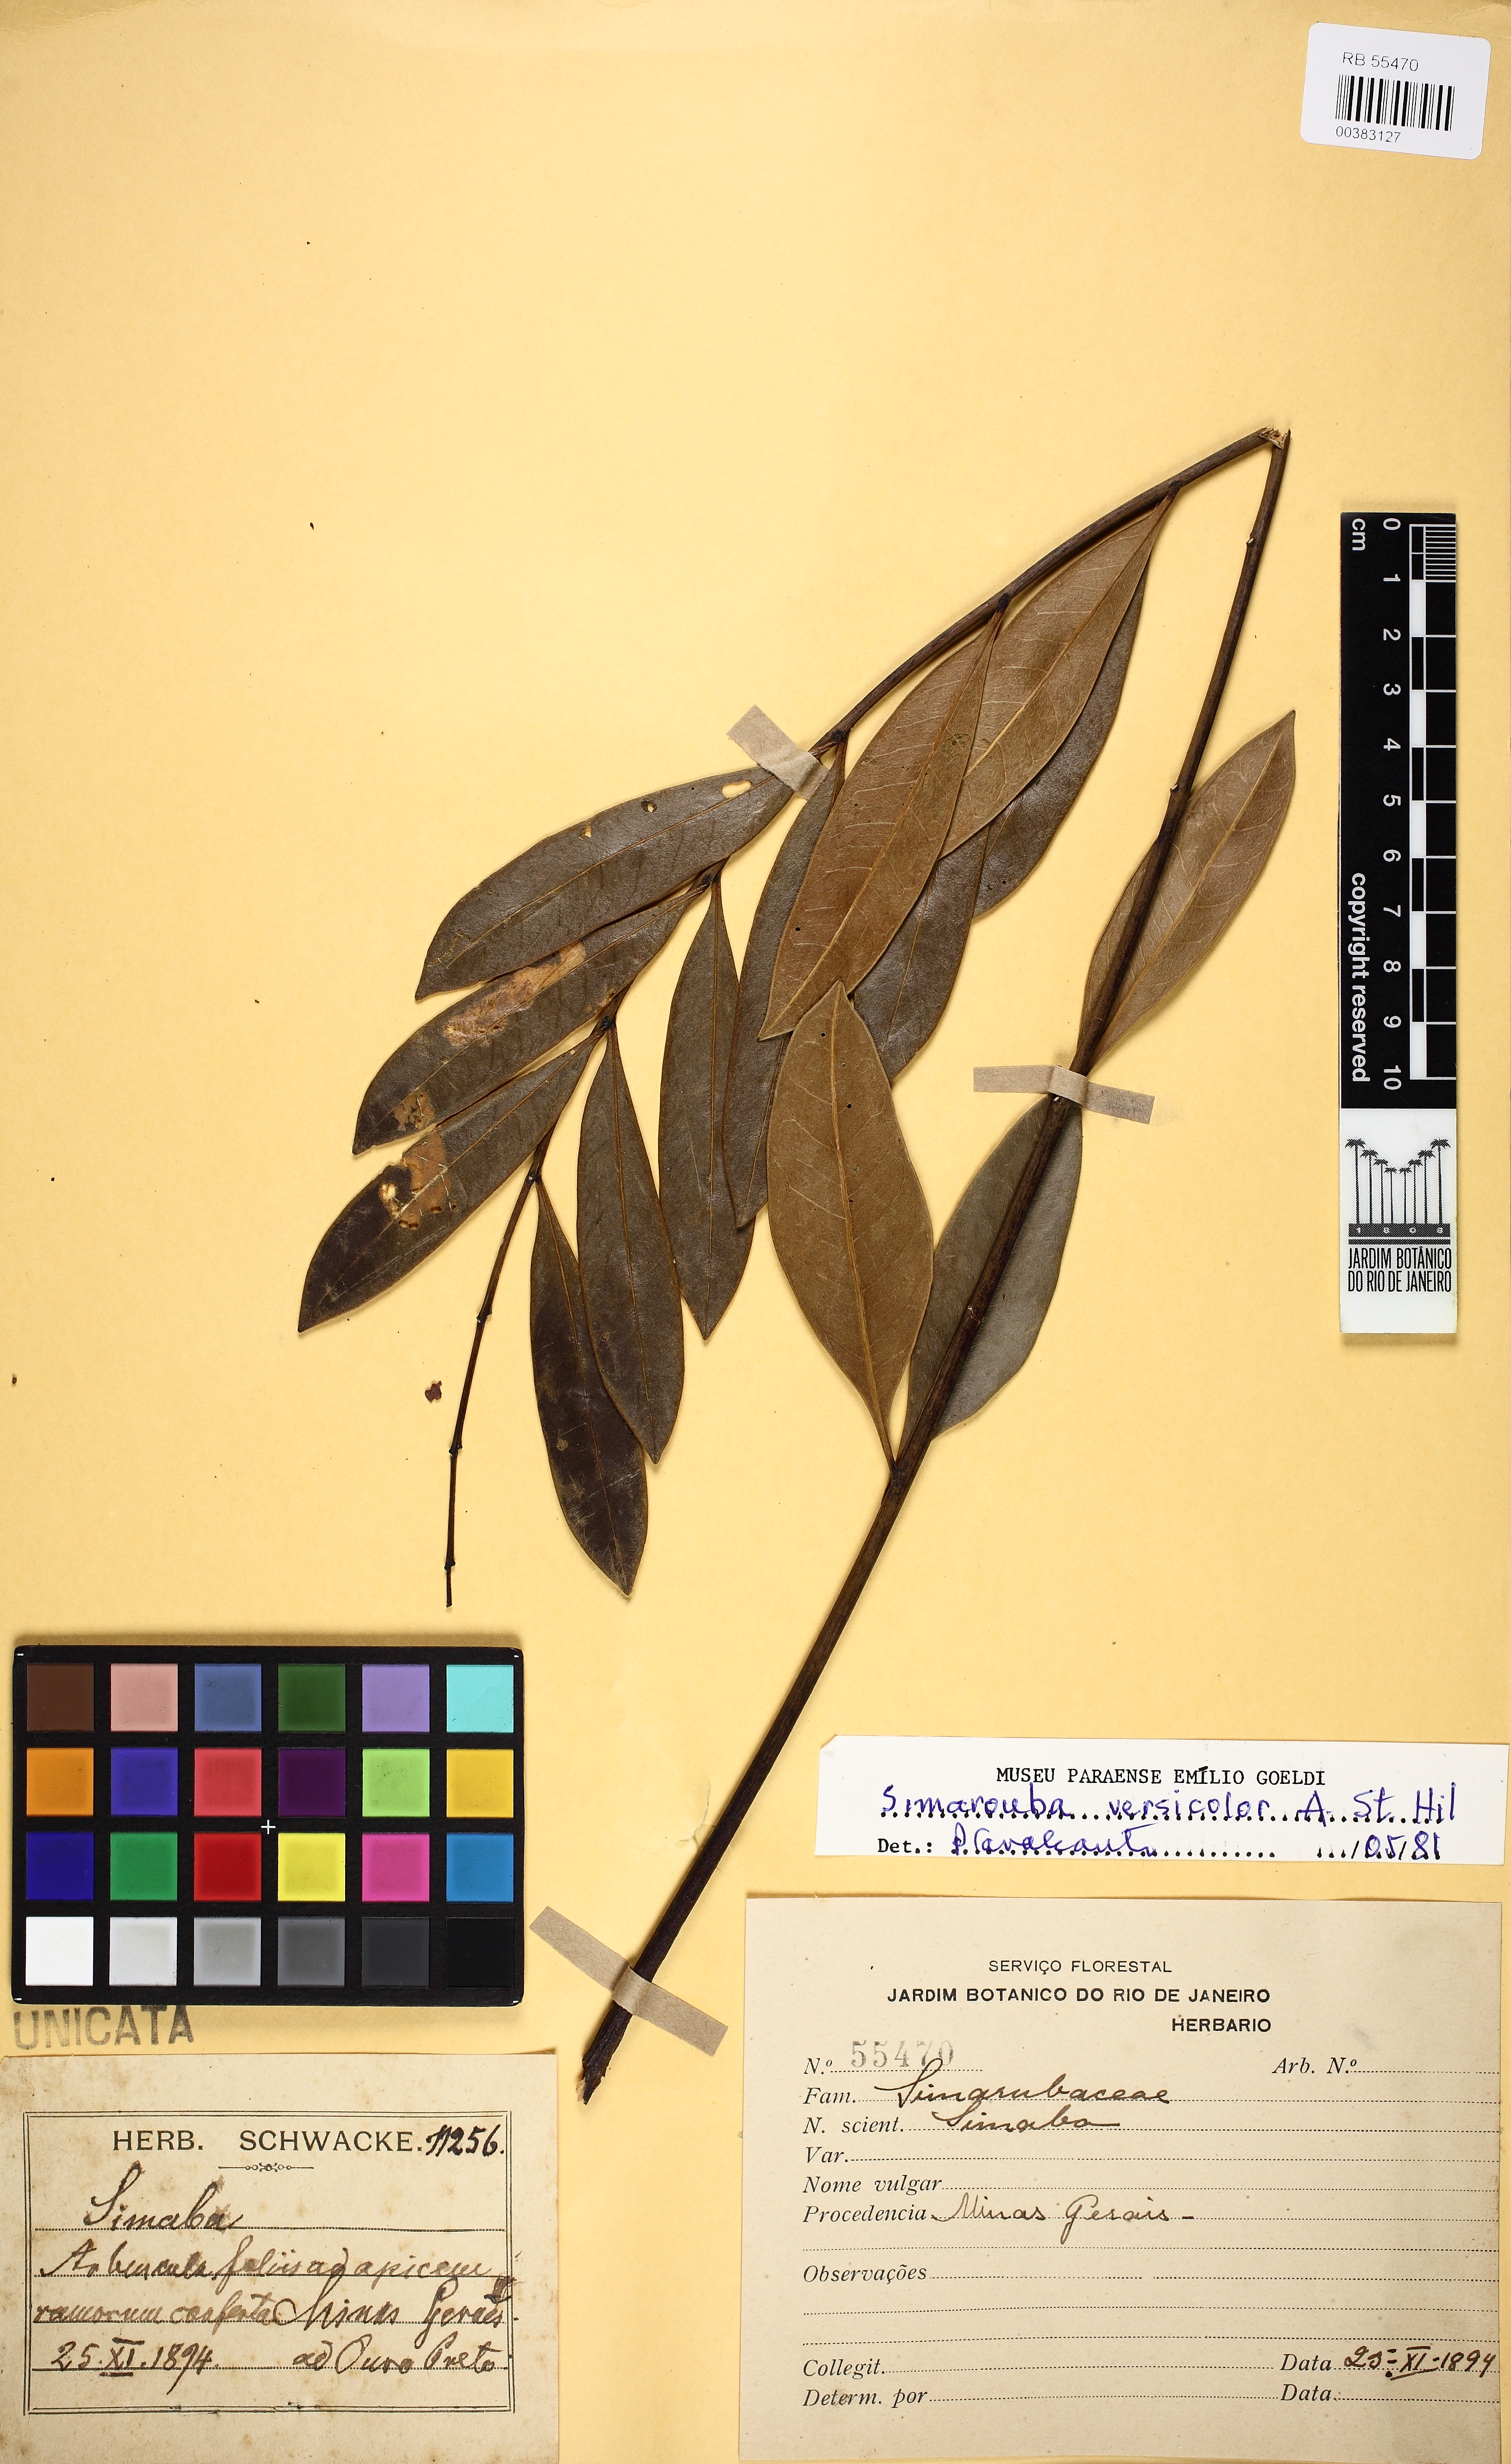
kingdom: Plantae
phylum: Tracheophyta
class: Magnoliopsida
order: Sapindales
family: Simaroubaceae
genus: Simarouba
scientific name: Simarouba versicolor
